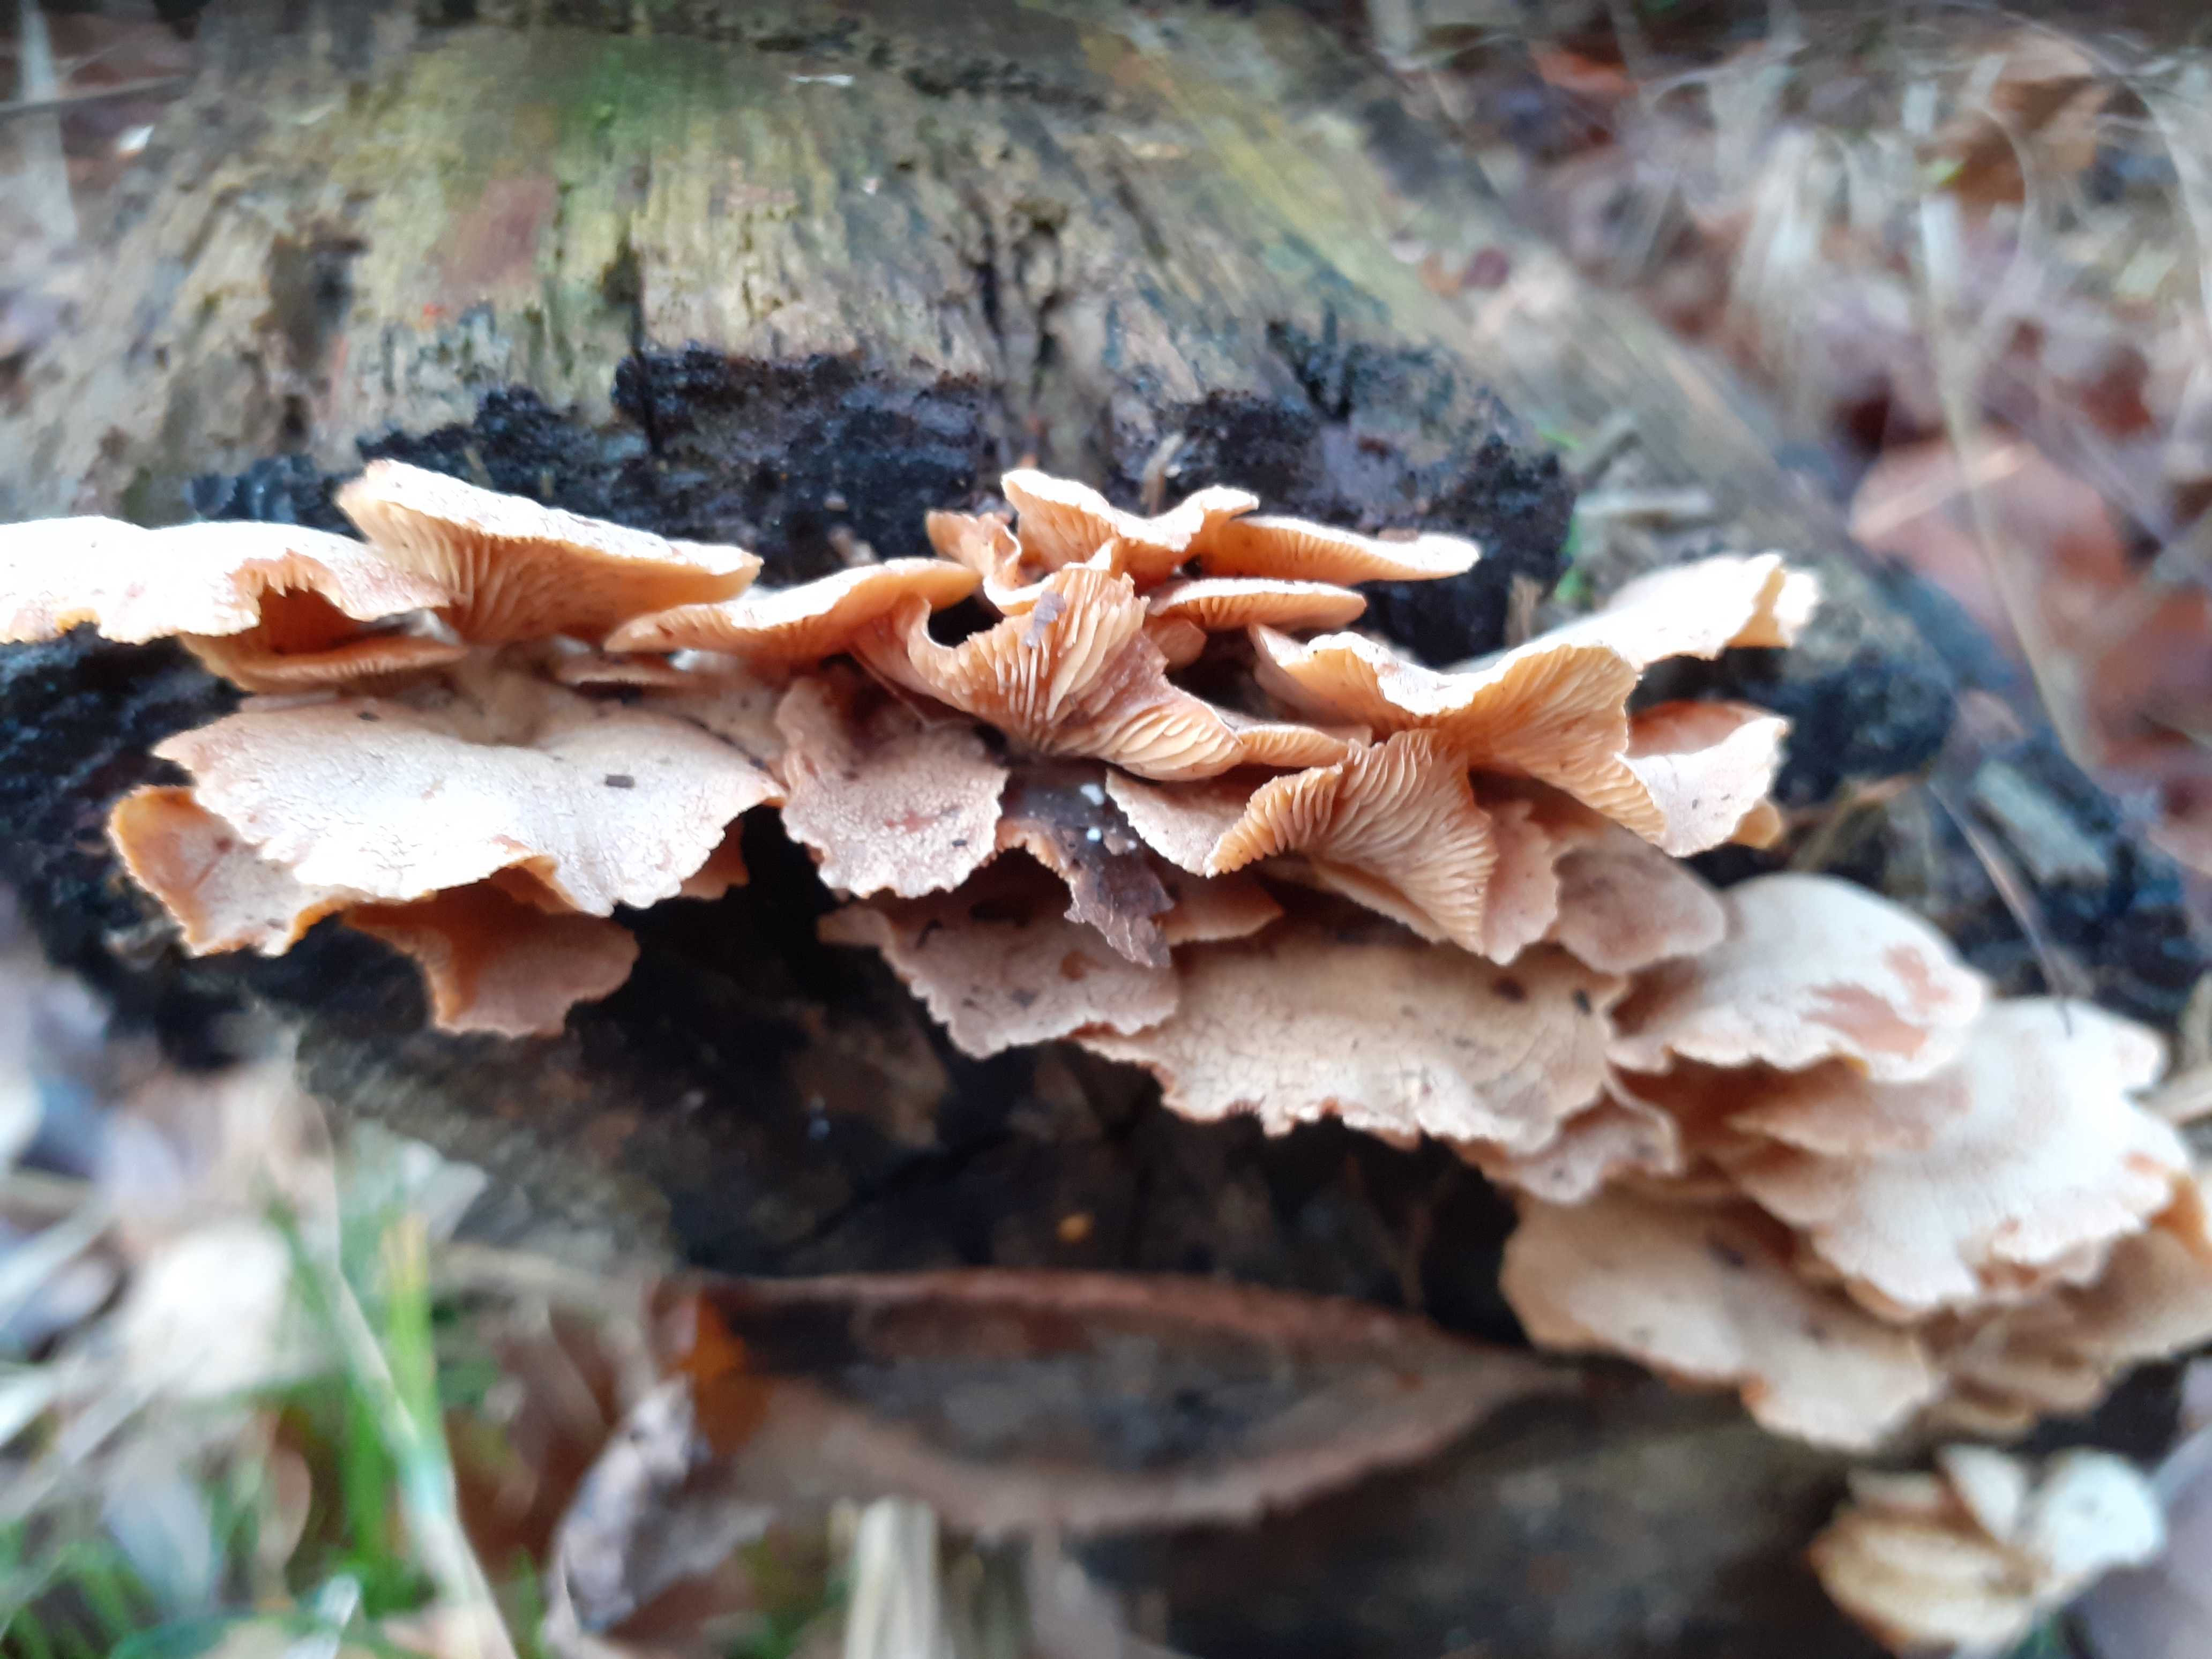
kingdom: Fungi
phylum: Basidiomycota
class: Agaricomycetes
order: Agaricales
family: Mycenaceae
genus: Panellus
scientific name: Panellus stipticus
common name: kliddet epaulethat
